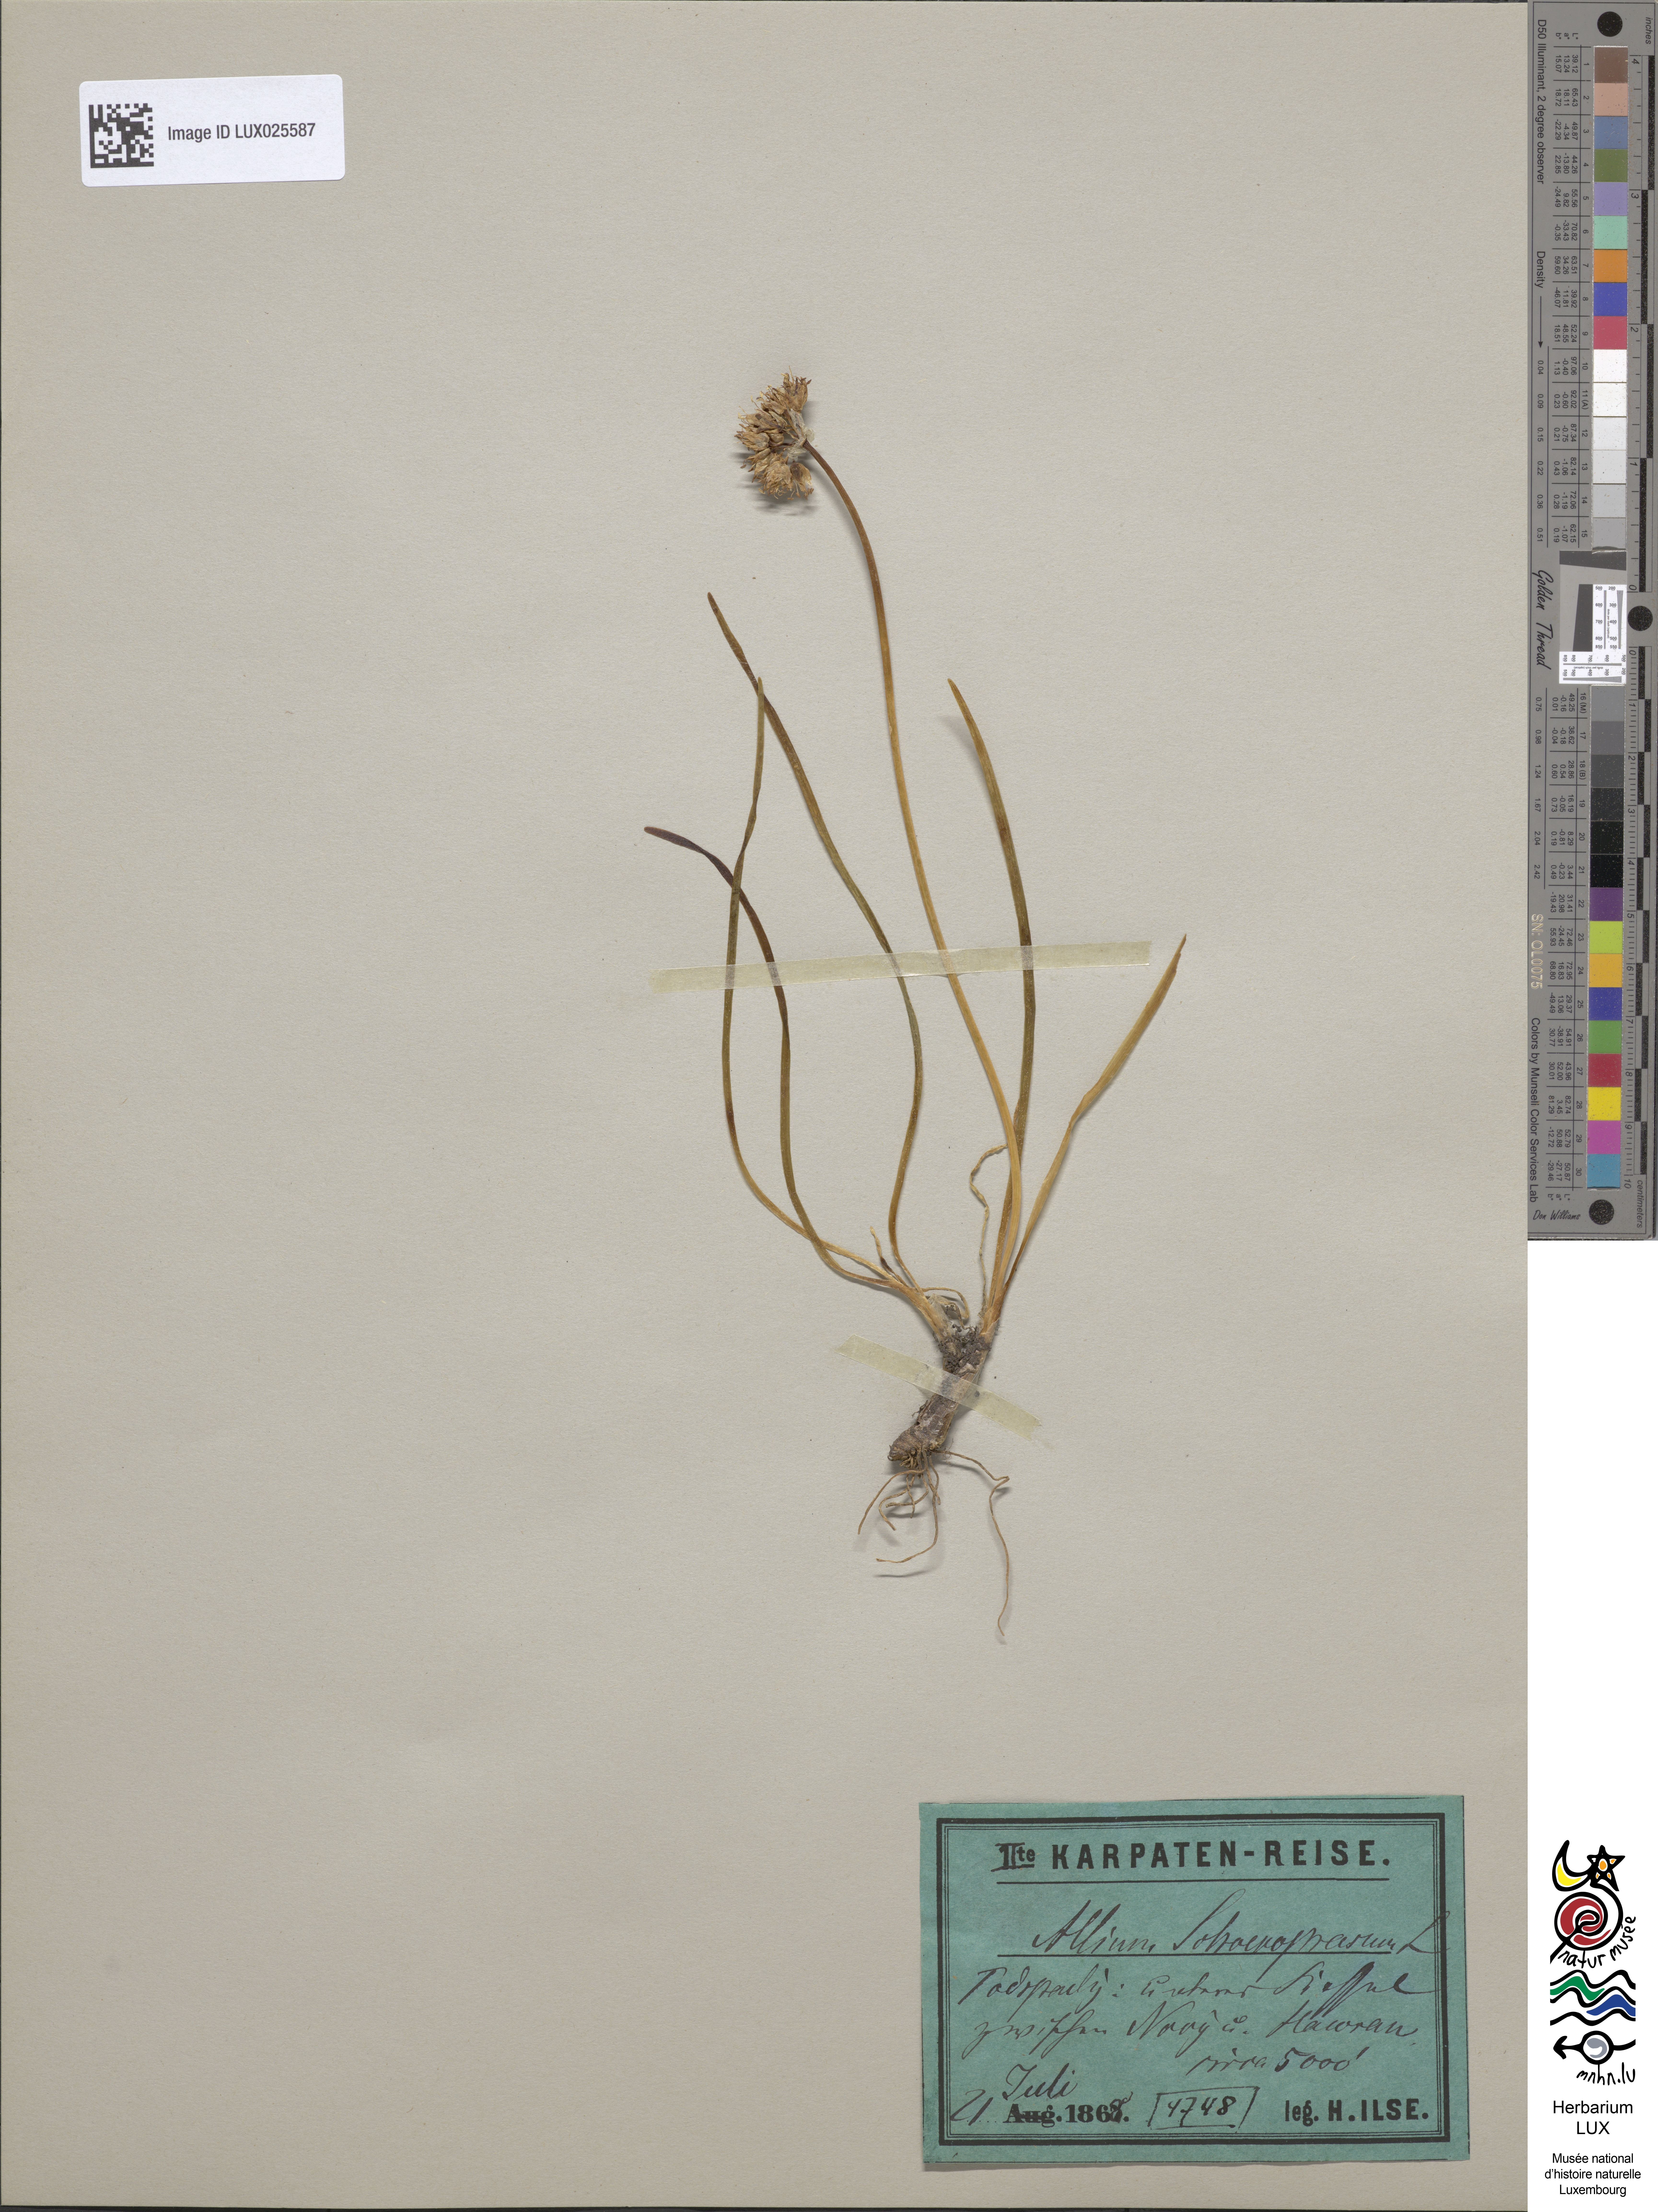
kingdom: Plantae
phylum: Tracheophyta
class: Liliopsida
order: Asparagales
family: Amaryllidaceae
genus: Allium
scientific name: Allium schoenoprasum
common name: Chives
